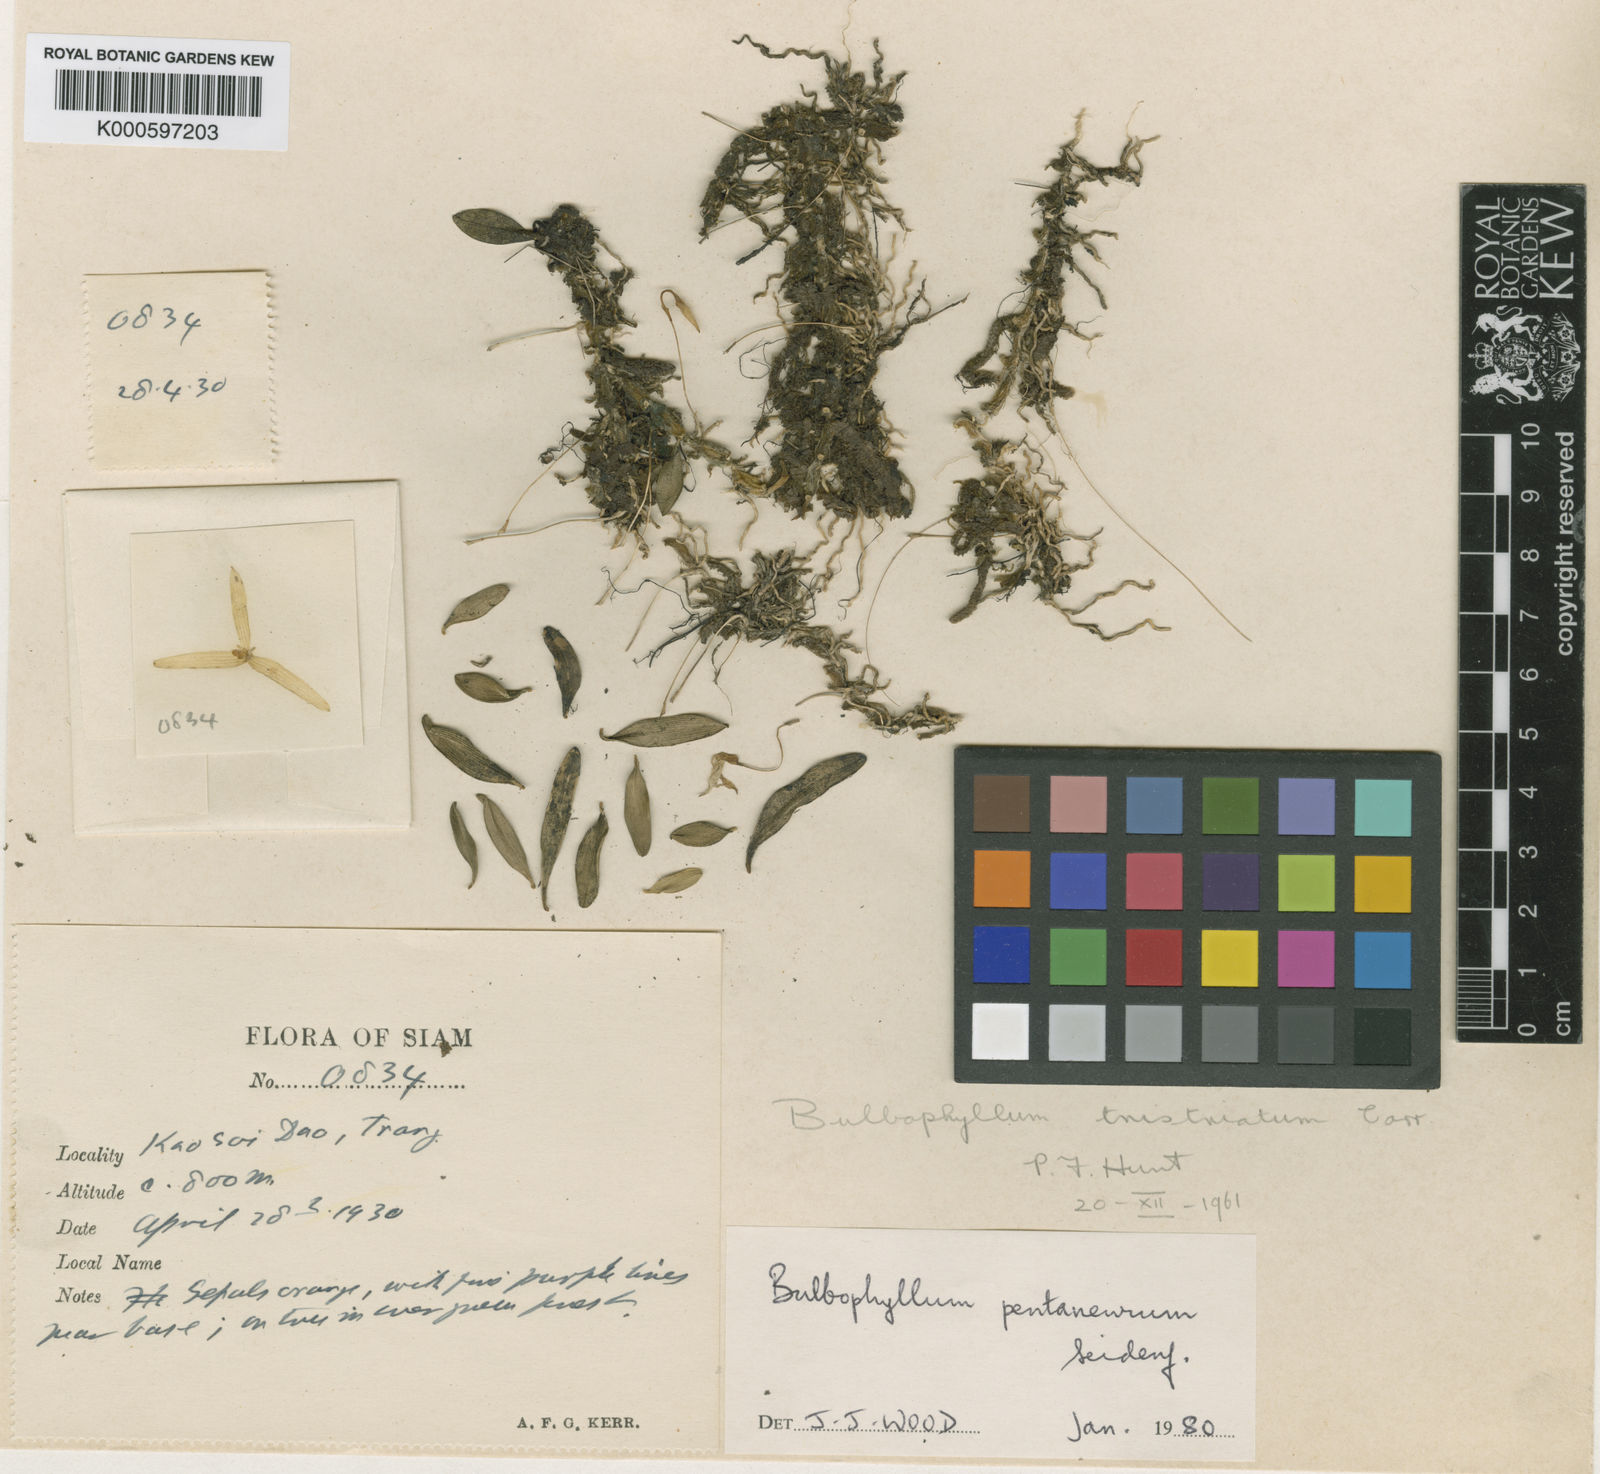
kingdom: Plantae
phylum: Tracheophyta
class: Liliopsida
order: Asparagales
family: Orchidaceae
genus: Bulbophyllum
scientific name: Bulbophyllum pentaneurum
